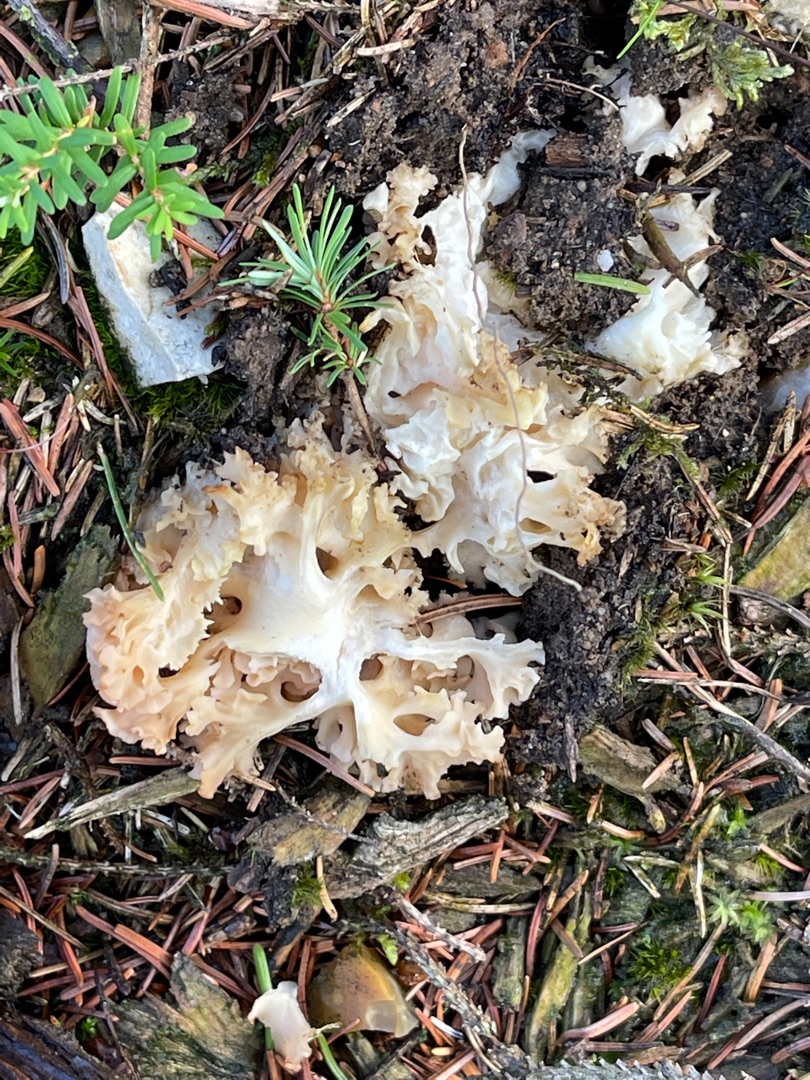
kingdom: Fungi
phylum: Basidiomycota
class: Agaricomycetes
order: Polyporales
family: Sparassidaceae
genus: Sparassis
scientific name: Sparassis crispa
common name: Kruset blomkålssvamp
